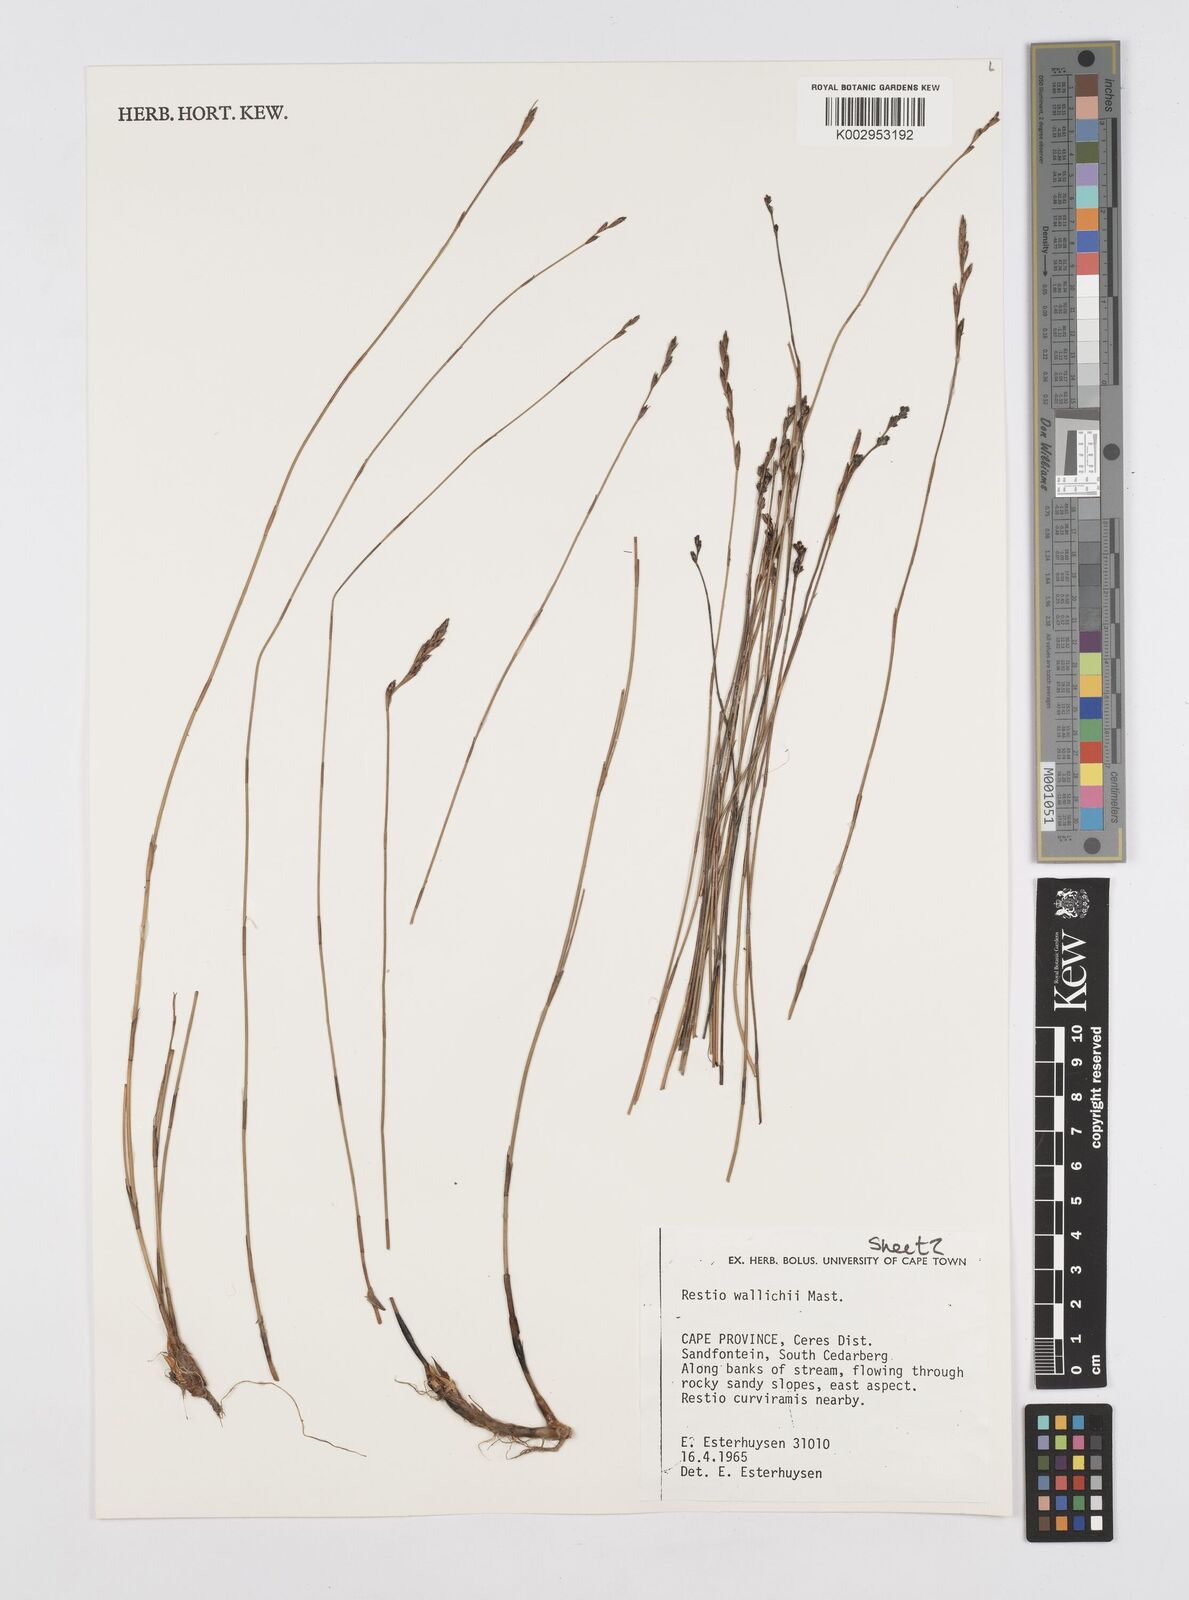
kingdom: Plantae
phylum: Tracheophyta
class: Liliopsida
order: Poales
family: Restionaceae
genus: Restio
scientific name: Restio wallichii
